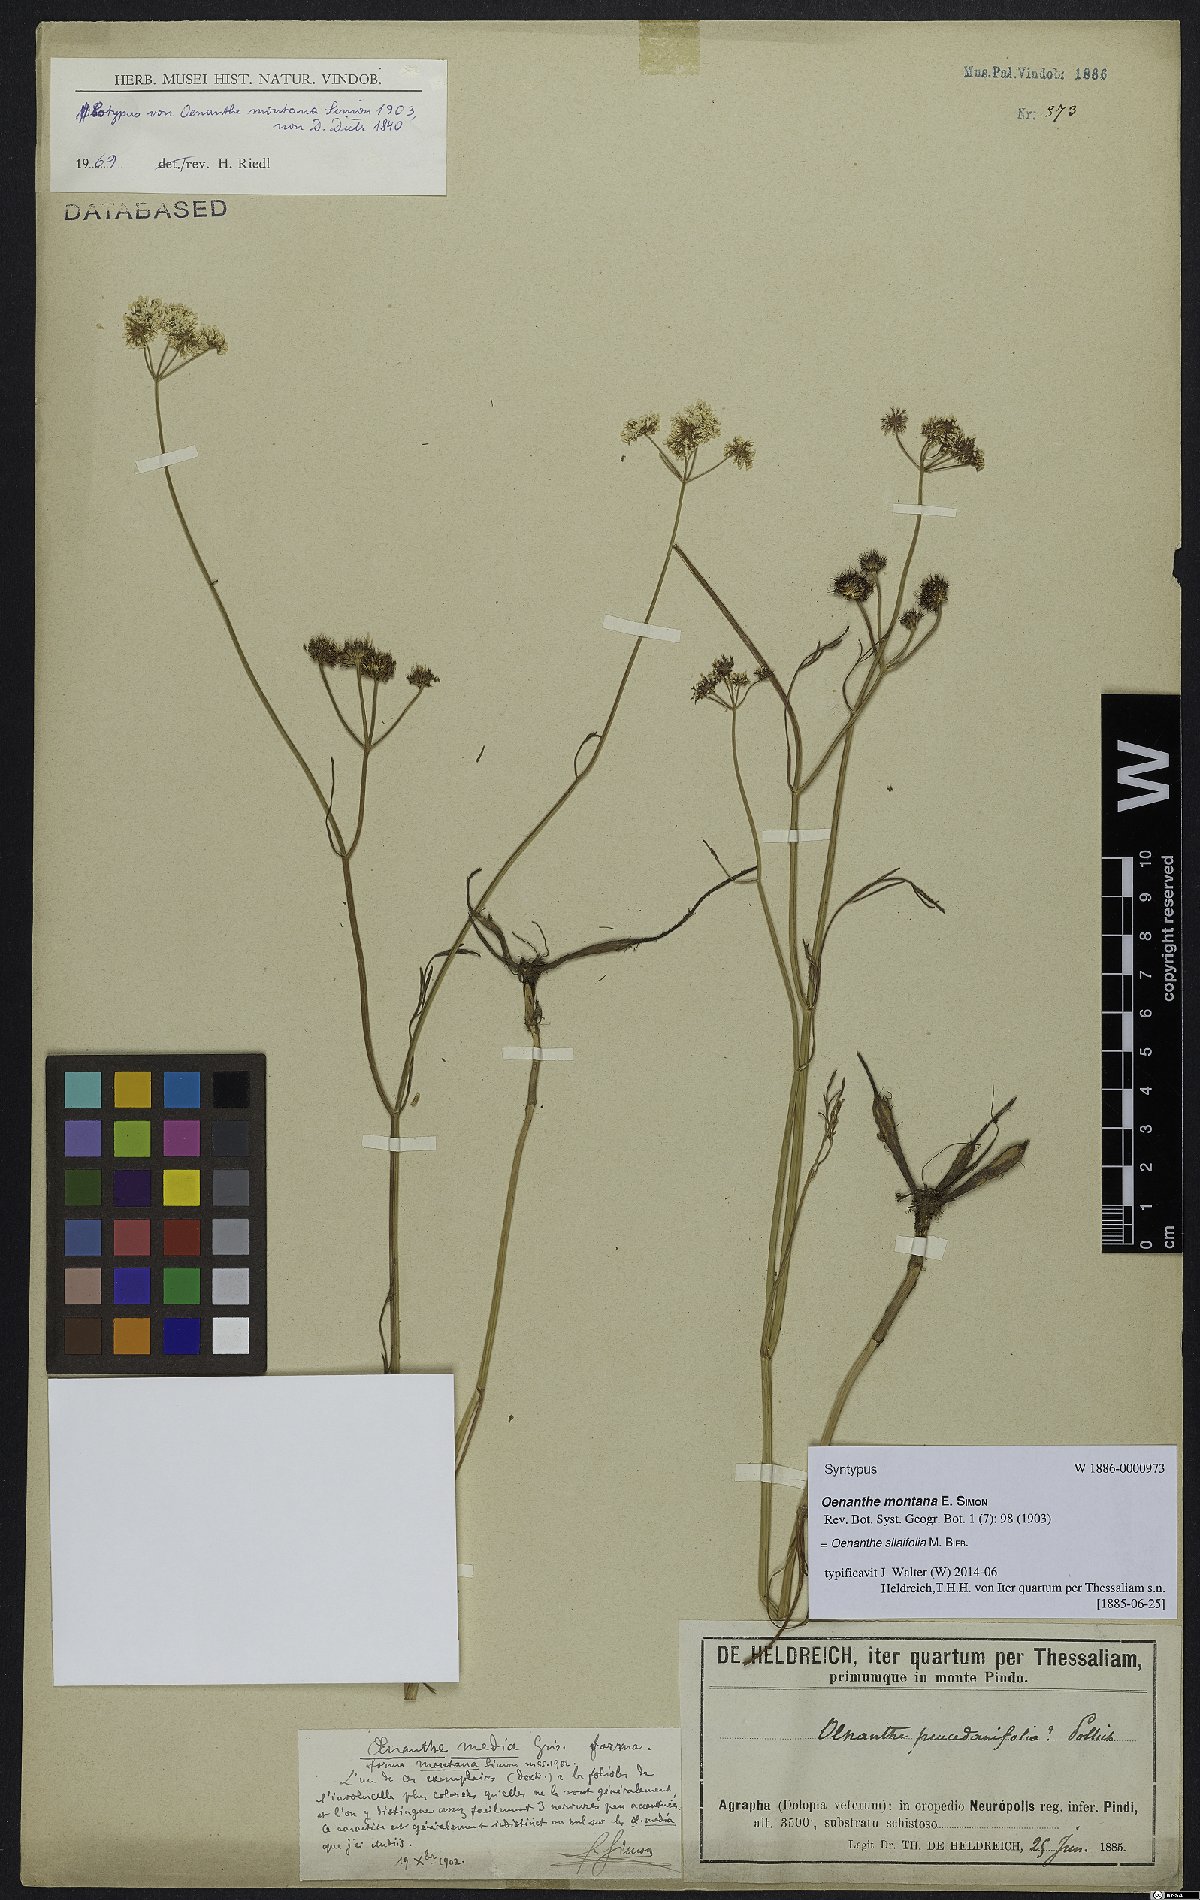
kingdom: Plantae
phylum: Tracheophyta
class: Magnoliopsida
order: Apiales
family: Apiaceae
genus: Oenanthe
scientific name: Oenanthe silaifolia
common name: Narrow-leaved water-dropwort
